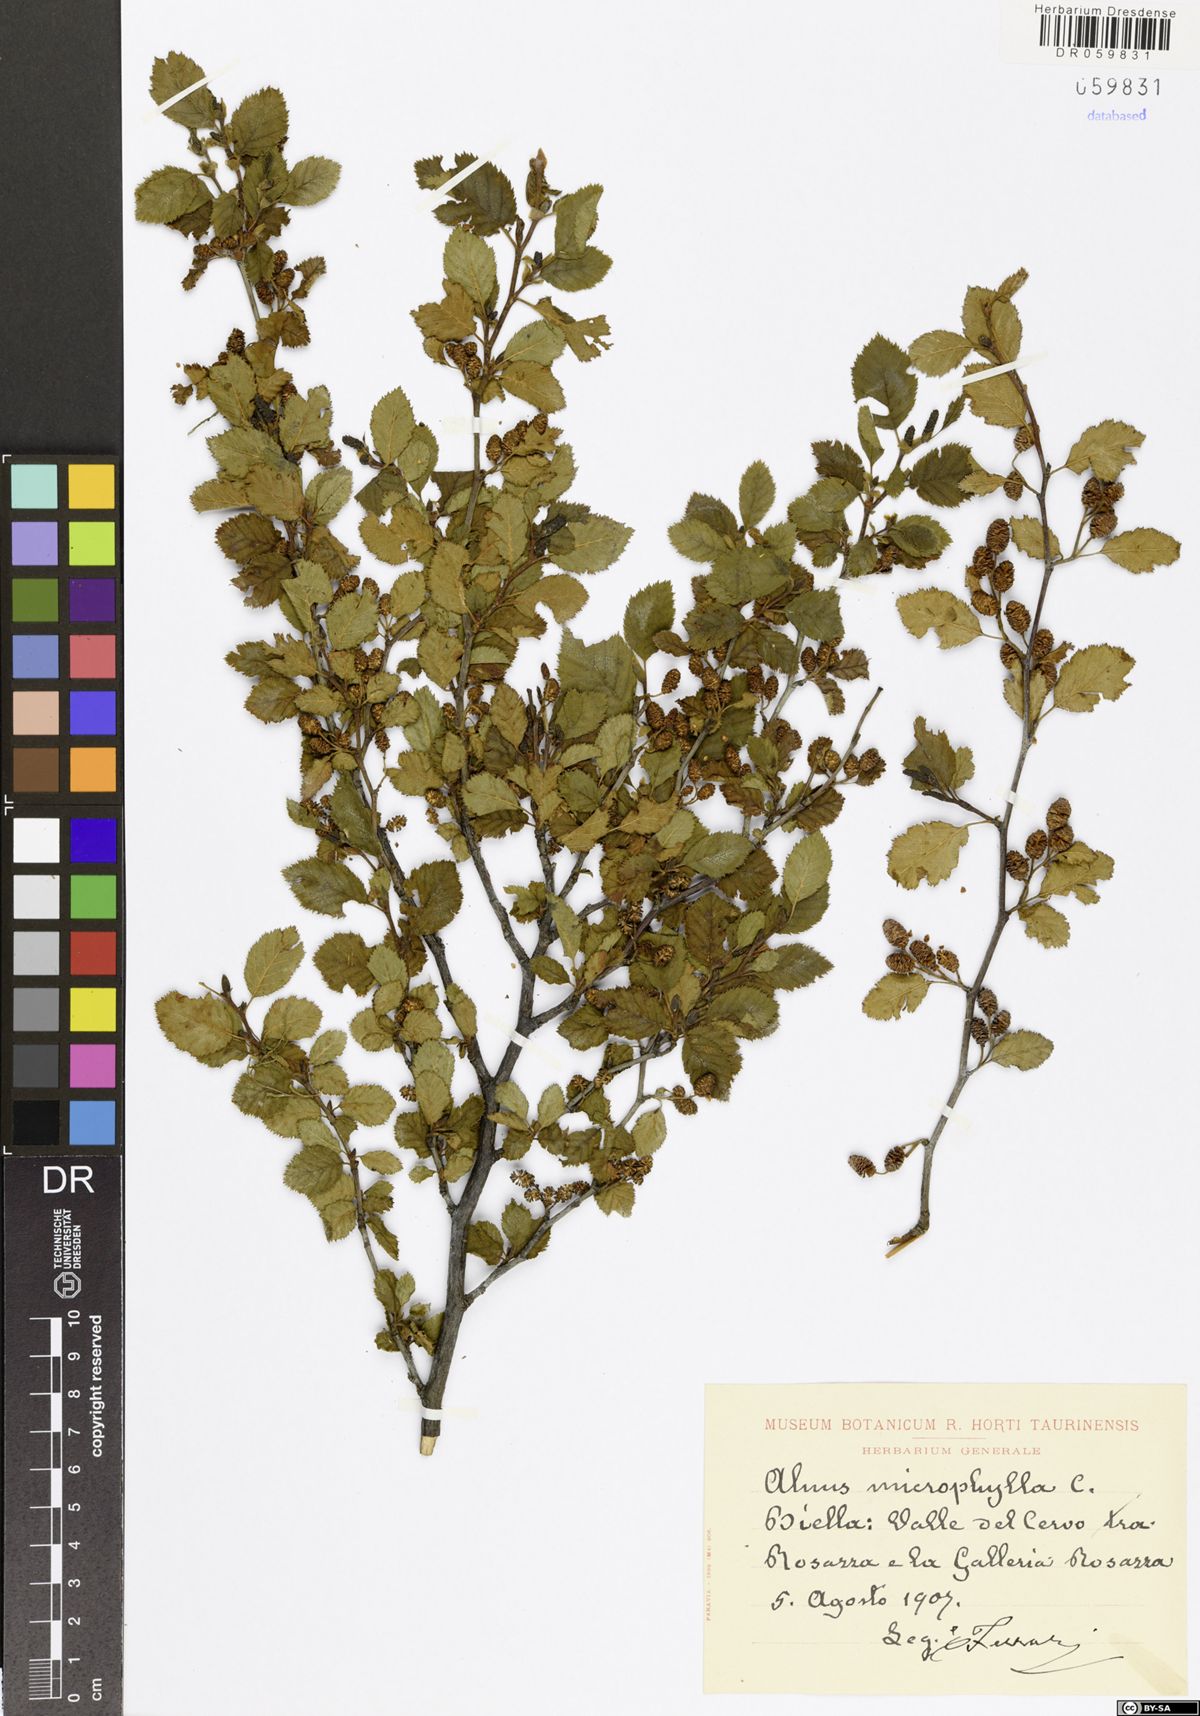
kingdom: Plantae
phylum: Tracheophyta
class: Magnoliopsida
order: Fagales
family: Betulaceae
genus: Alnus
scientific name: Alnus alnobetula
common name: Green alder
